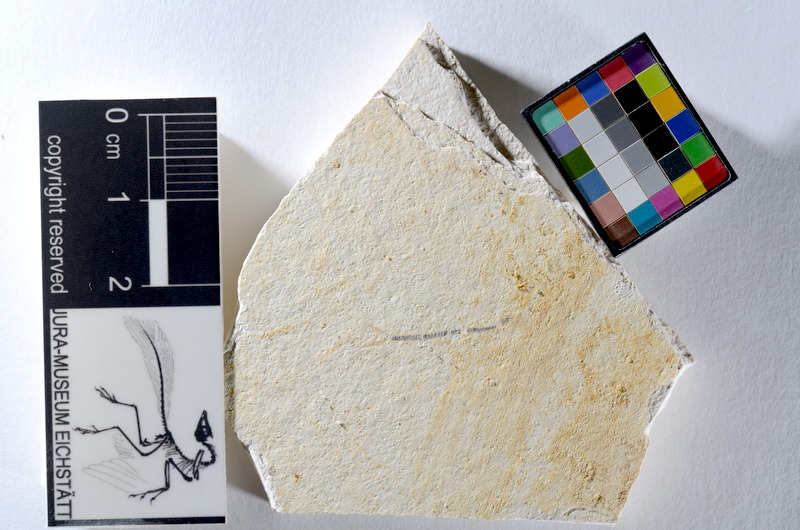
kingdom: Animalia
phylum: Chordata
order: Salmoniformes
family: Orthogonikleithridae
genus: Orthogonikleithrus
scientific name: Orthogonikleithrus hoelli
